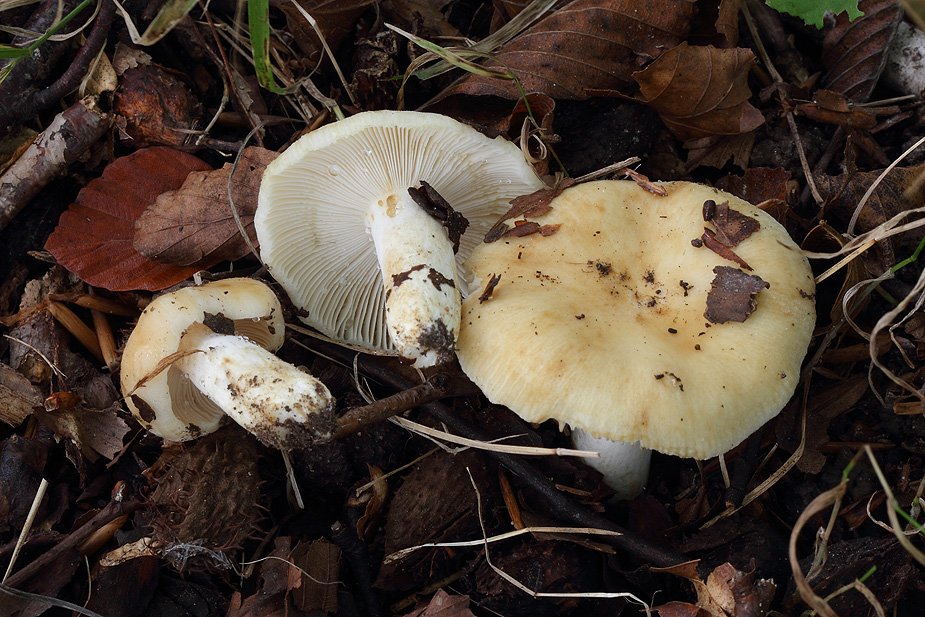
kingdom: Fungi
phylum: Basidiomycota
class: Agaricomycetes
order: Russulales
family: Russulaceae
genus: Russula
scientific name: Russula farinipes
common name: gul kam-skørhat
